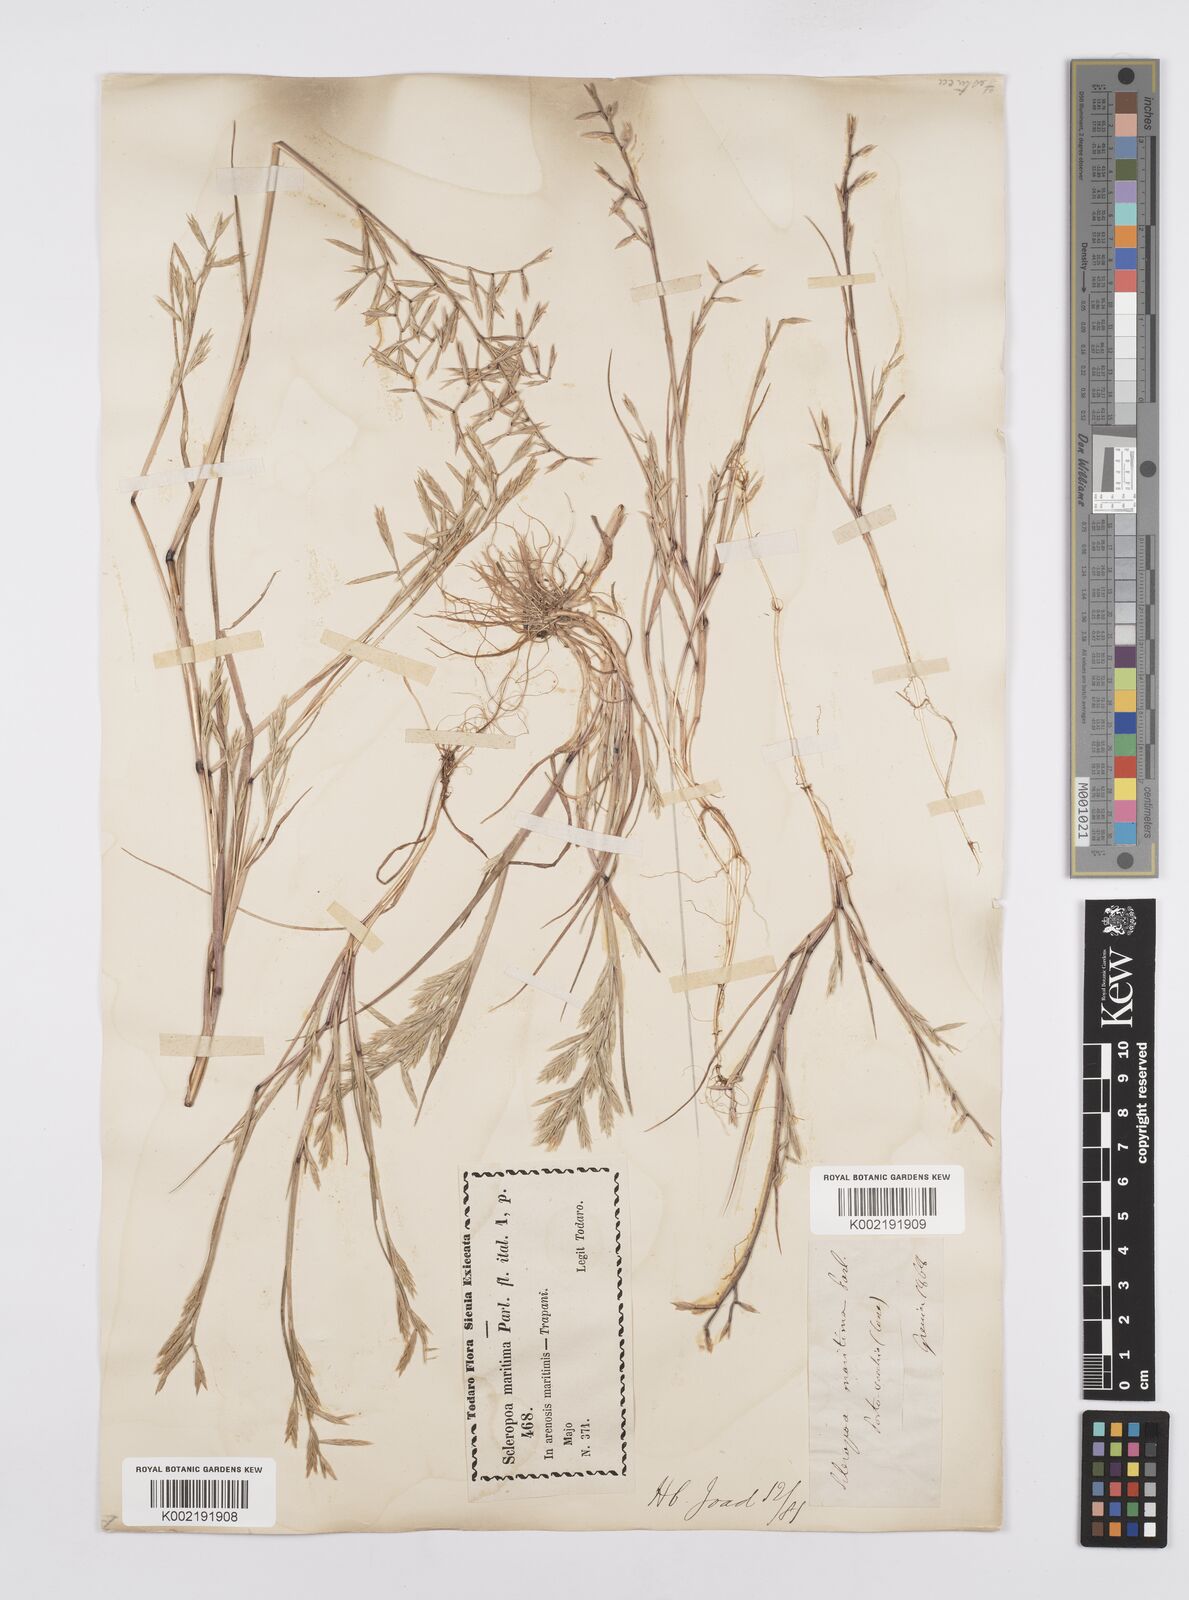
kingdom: Plantae
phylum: Tracheophyta
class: Liliopsida
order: Poales
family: Poaceae
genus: Cutandia
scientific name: Cutandia maritima
